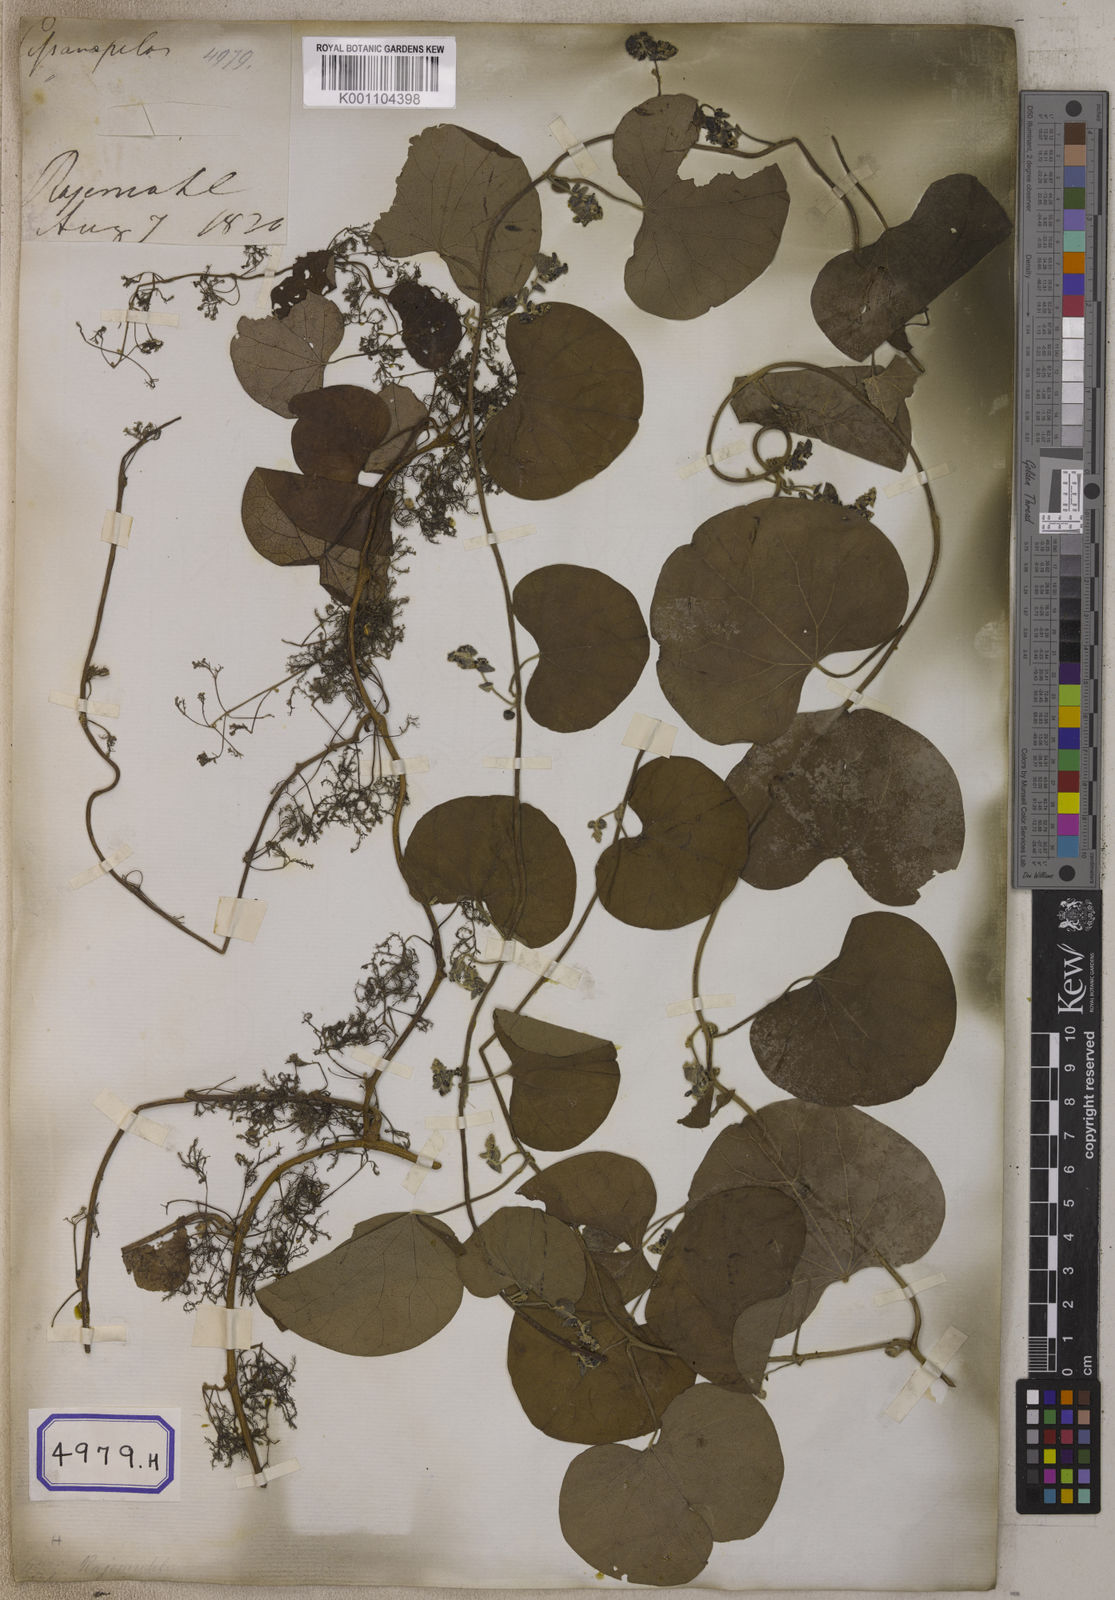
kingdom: Plantae
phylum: Tracheophyta
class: Magnoliopsida
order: Ranunculales
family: Menispermaceae
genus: Cissampelos
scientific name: Cissampelos pareira
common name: Velvetleaf
